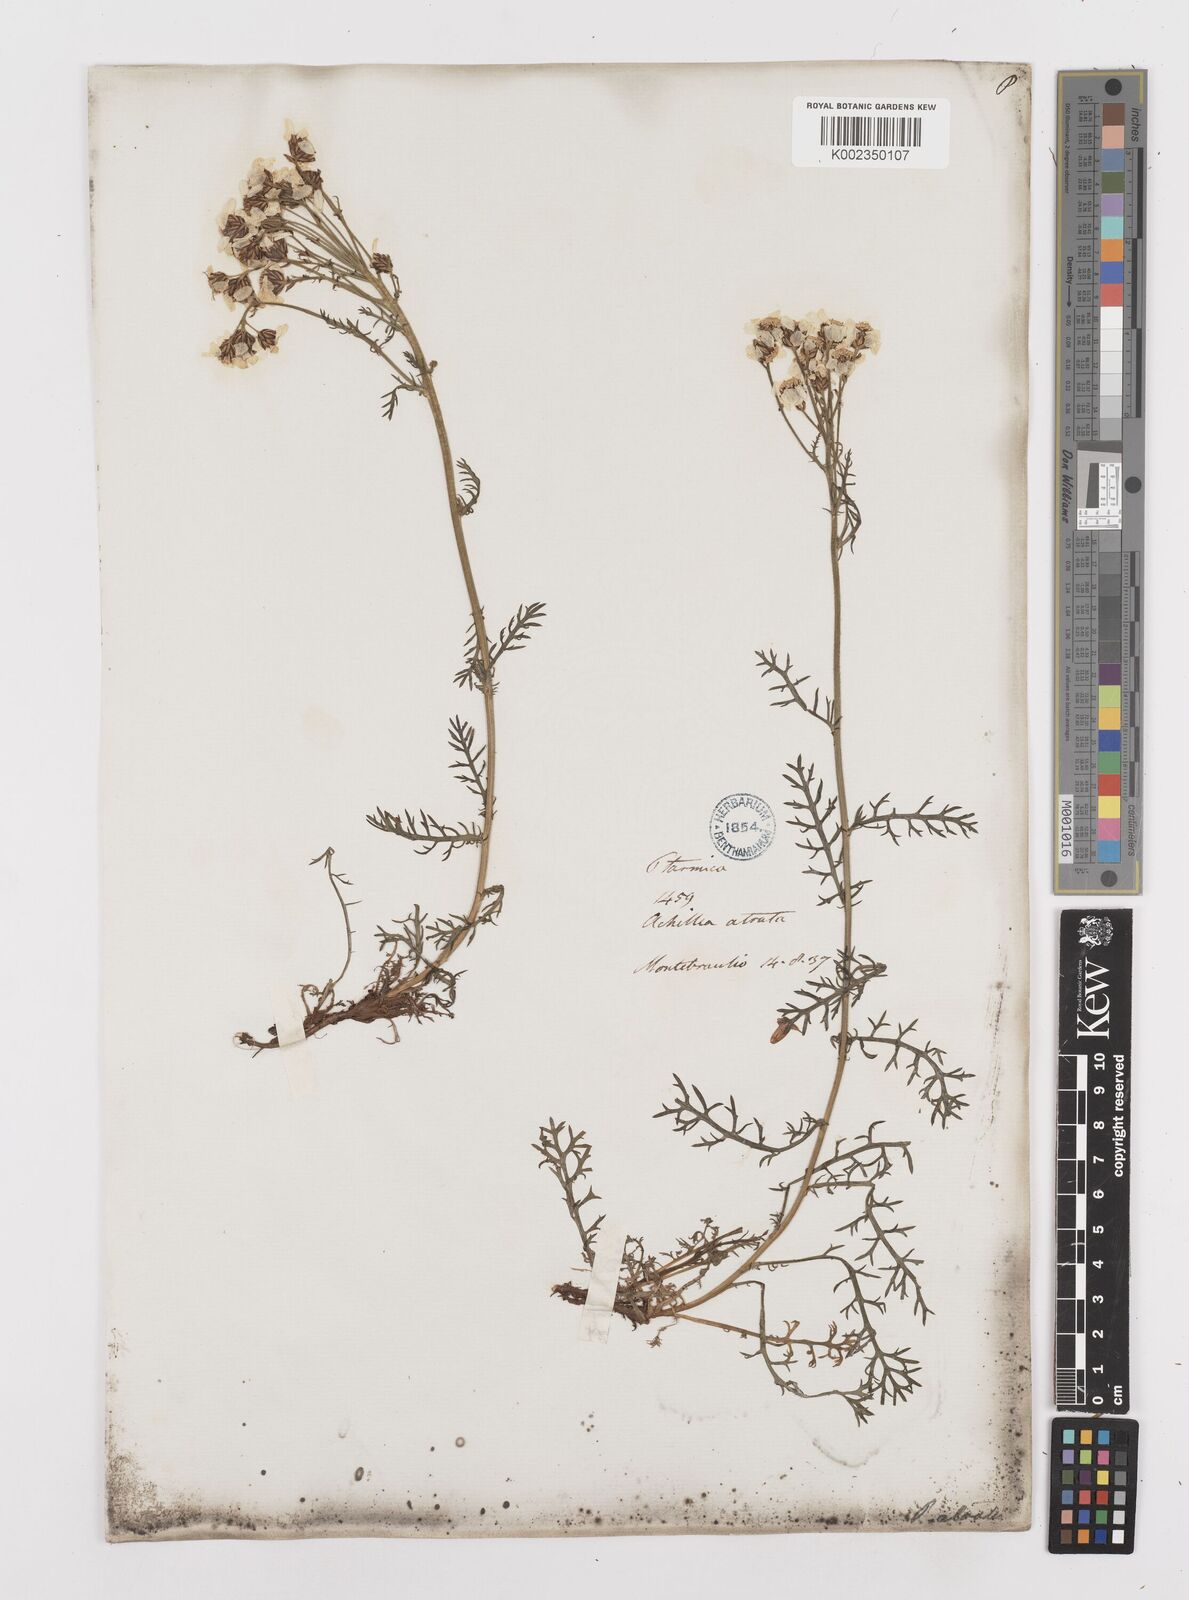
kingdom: Plantae
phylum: Tracheophyta
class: Magnoliopsida
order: Asterales
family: Asteraceae
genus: Achillea
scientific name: Achillea atrata
